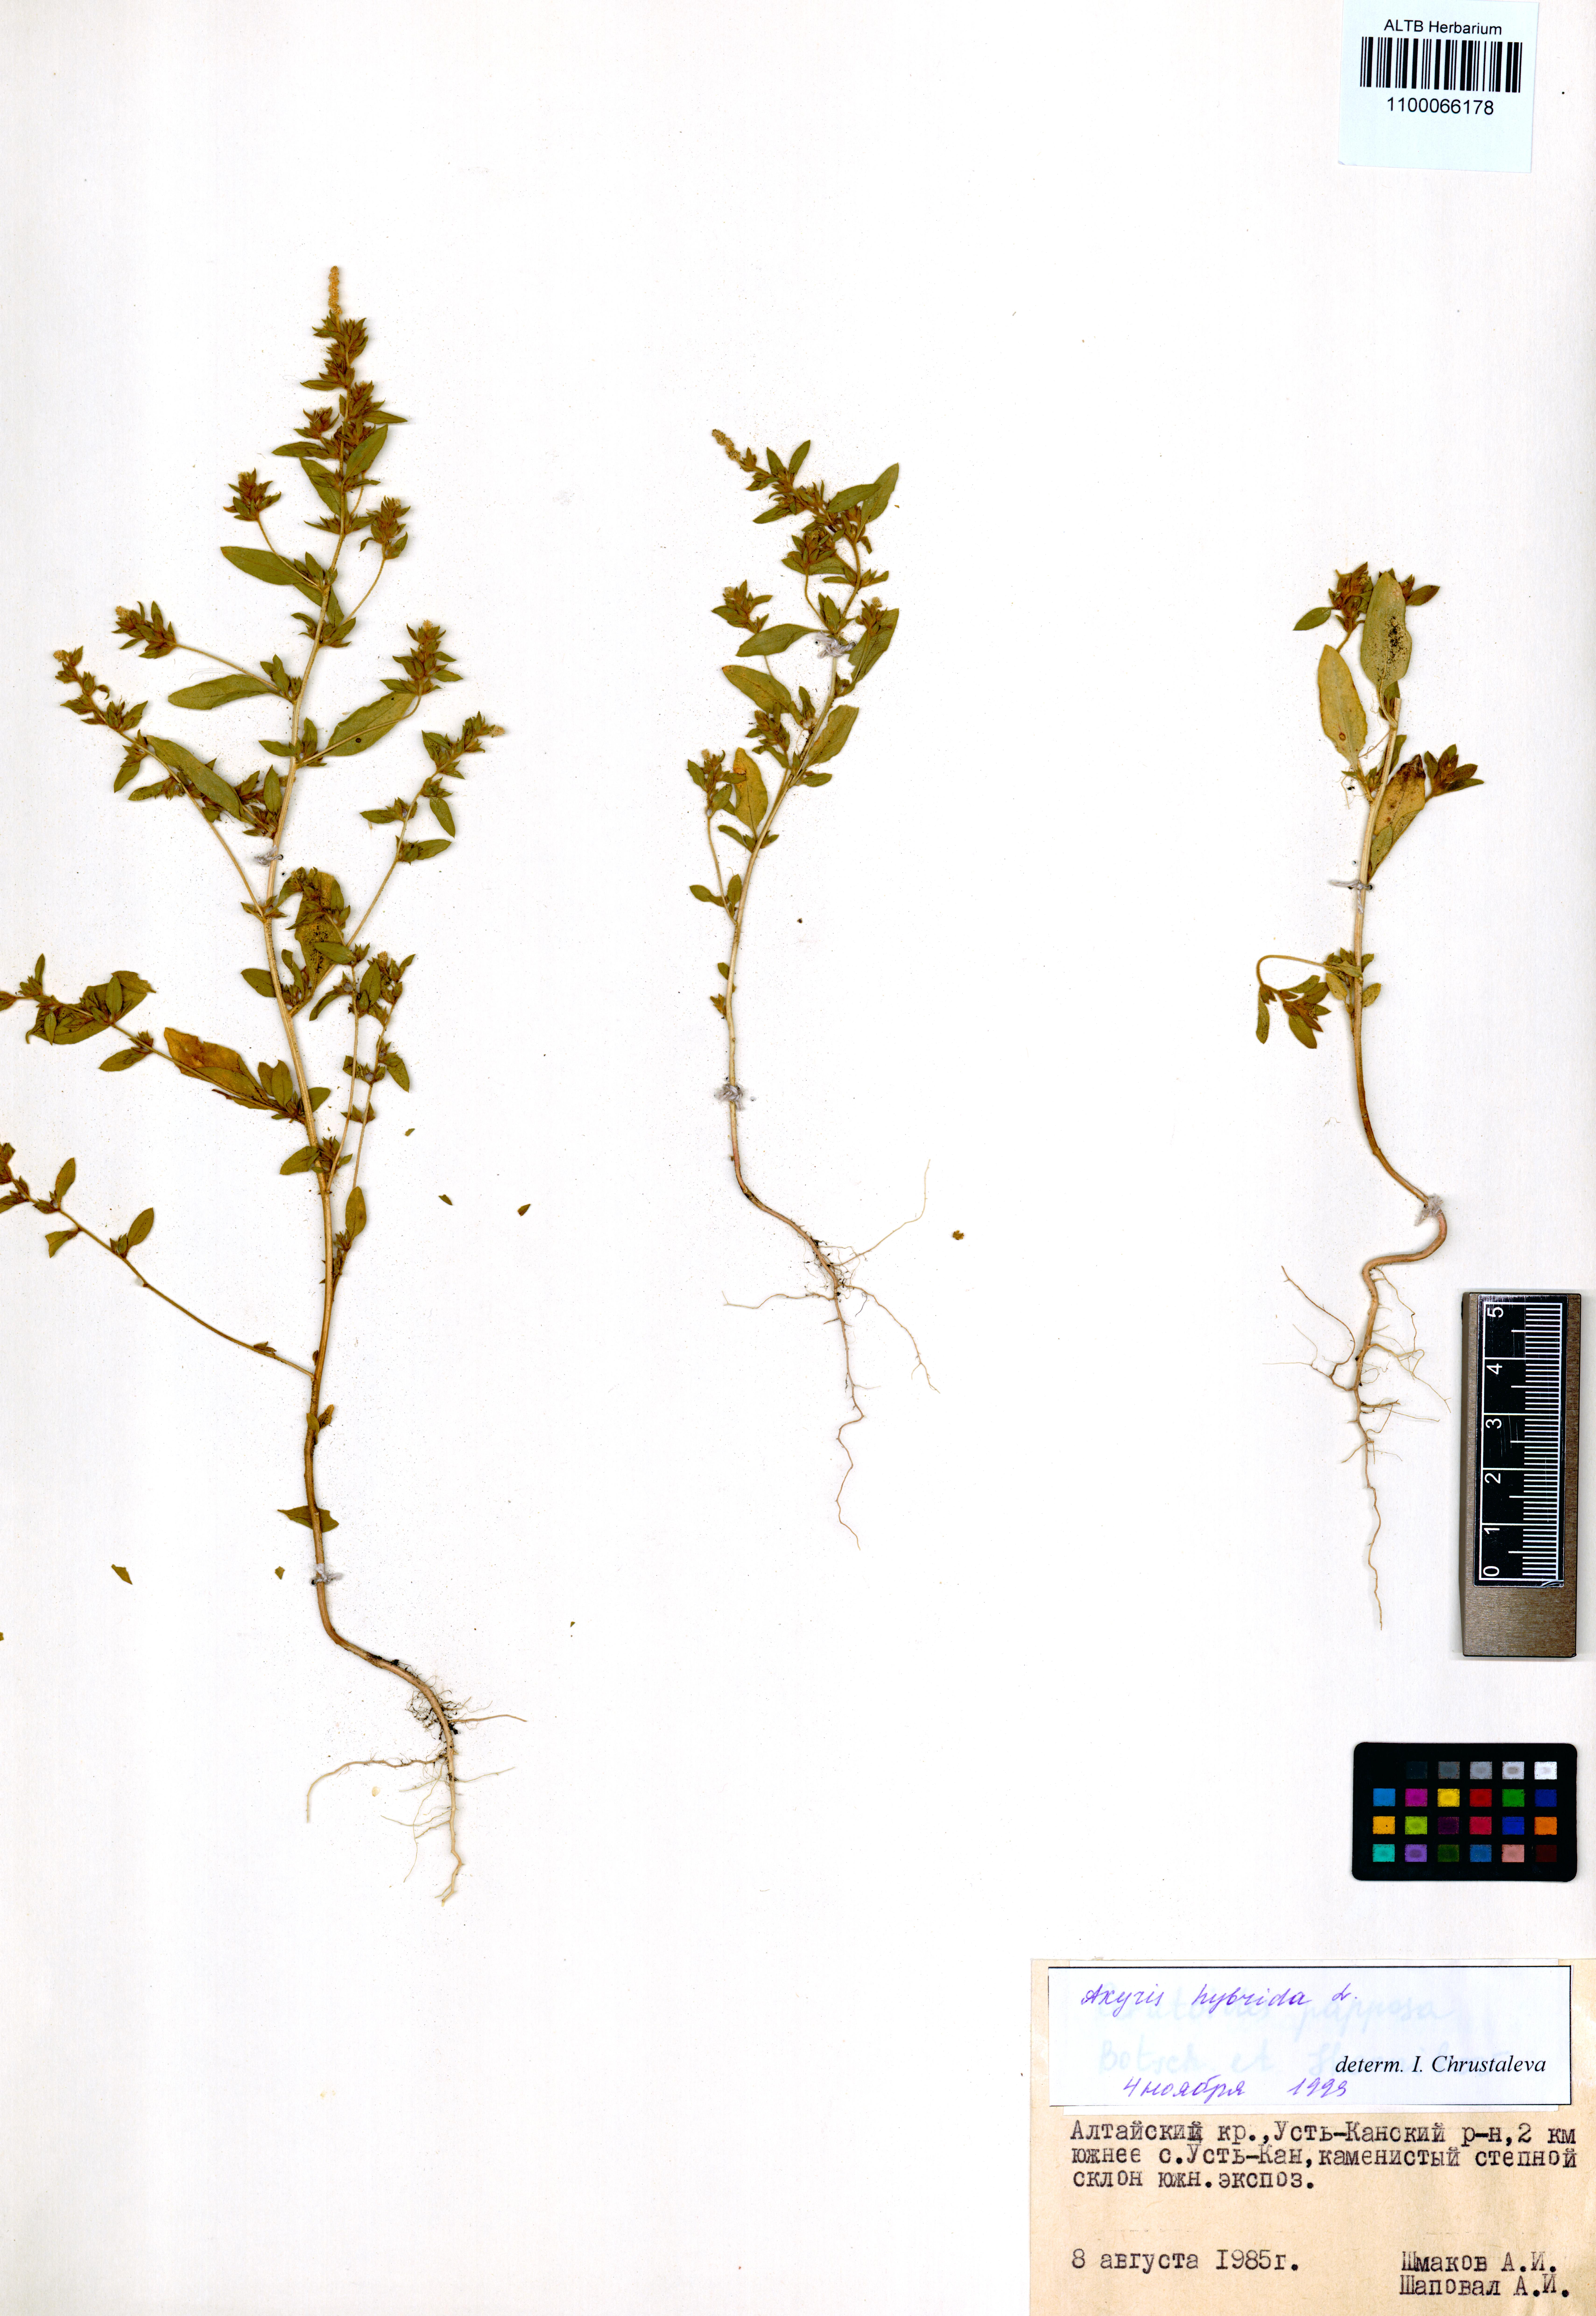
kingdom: Plantae
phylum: Tracheophyta
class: Magnoliopsida
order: Caryophyllales
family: Amaranthaceae
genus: Axyris
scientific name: Axyris hybrida
